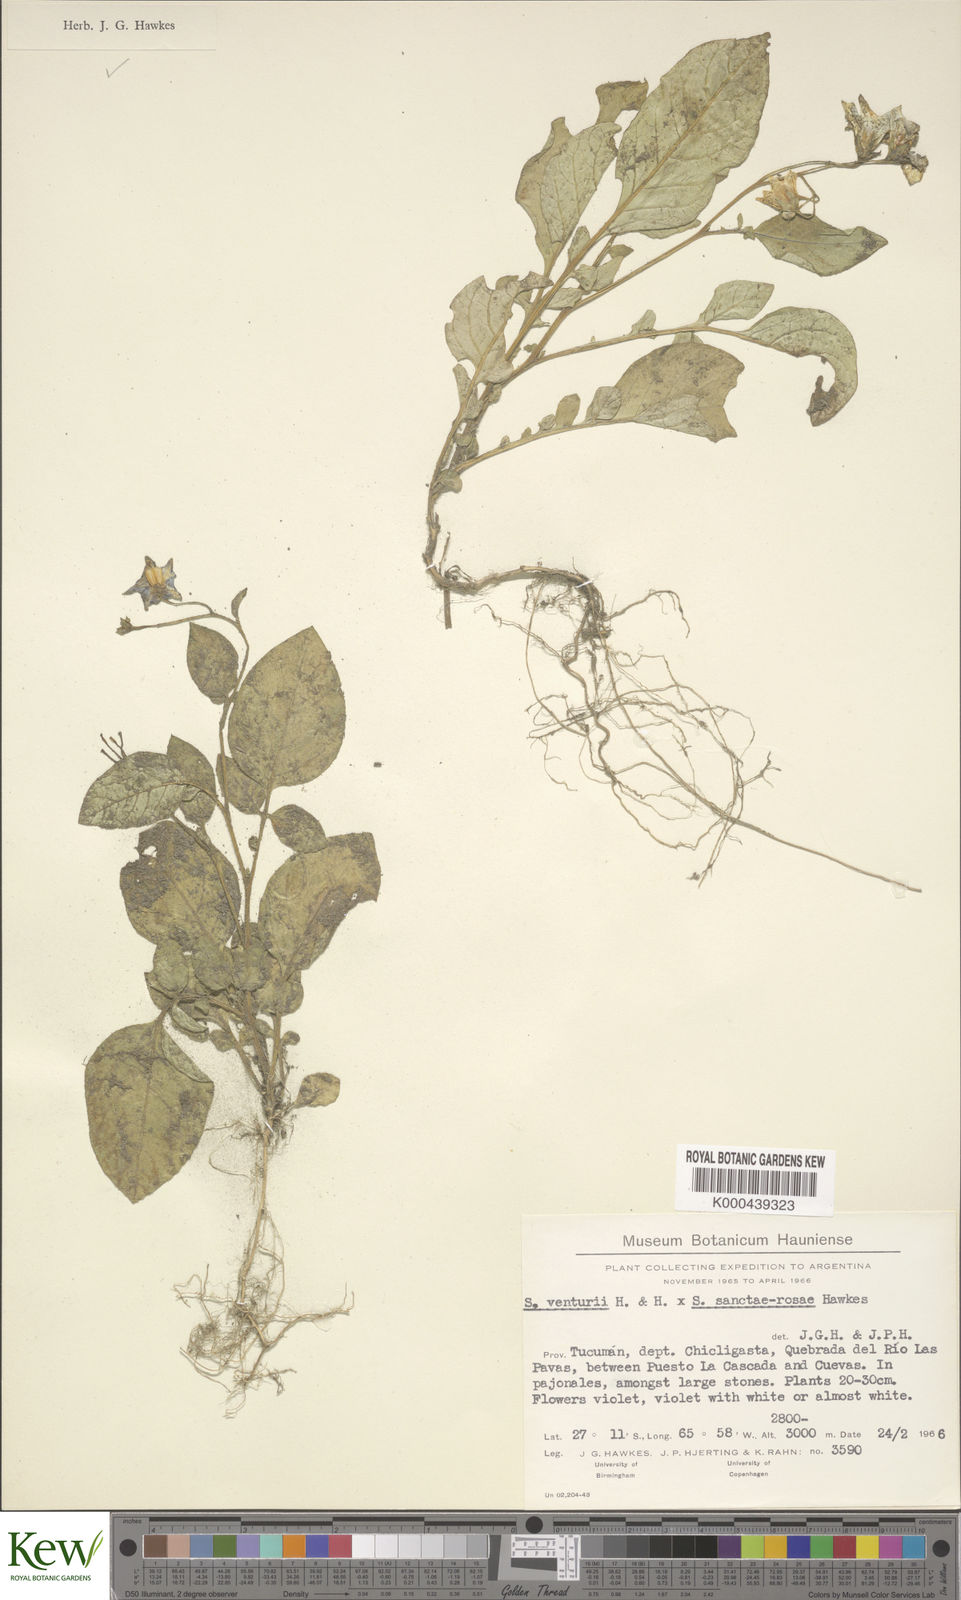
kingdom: Plantae
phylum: Tracheophyta
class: Magnoliopsida
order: Solanales
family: Solanaceae
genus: Solanum
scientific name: Solanum boliviense
